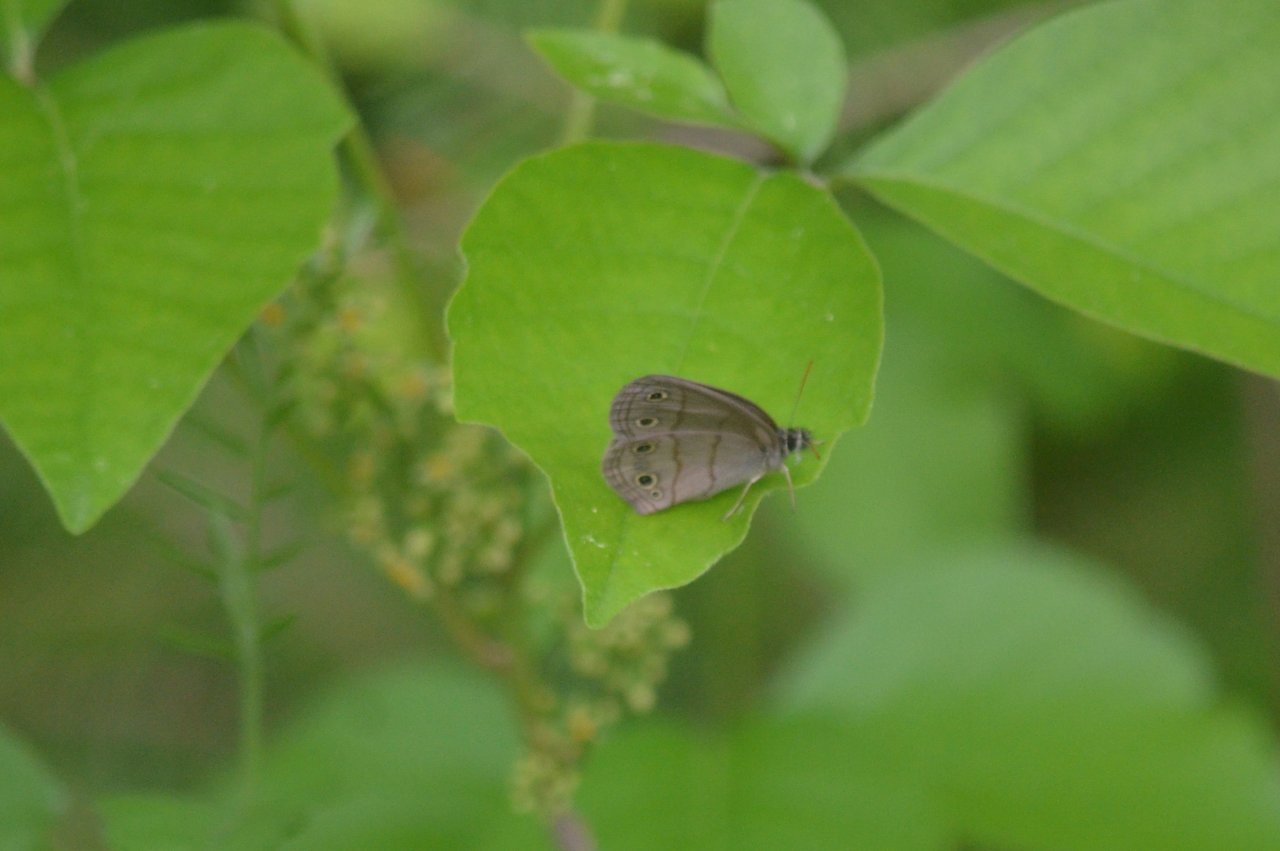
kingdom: Animalia
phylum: Arthropoda
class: Insecta
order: Lepidoptera
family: Nymphalidae
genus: Euptychia
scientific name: Euptychia cymela
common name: Little Wood Satyr
